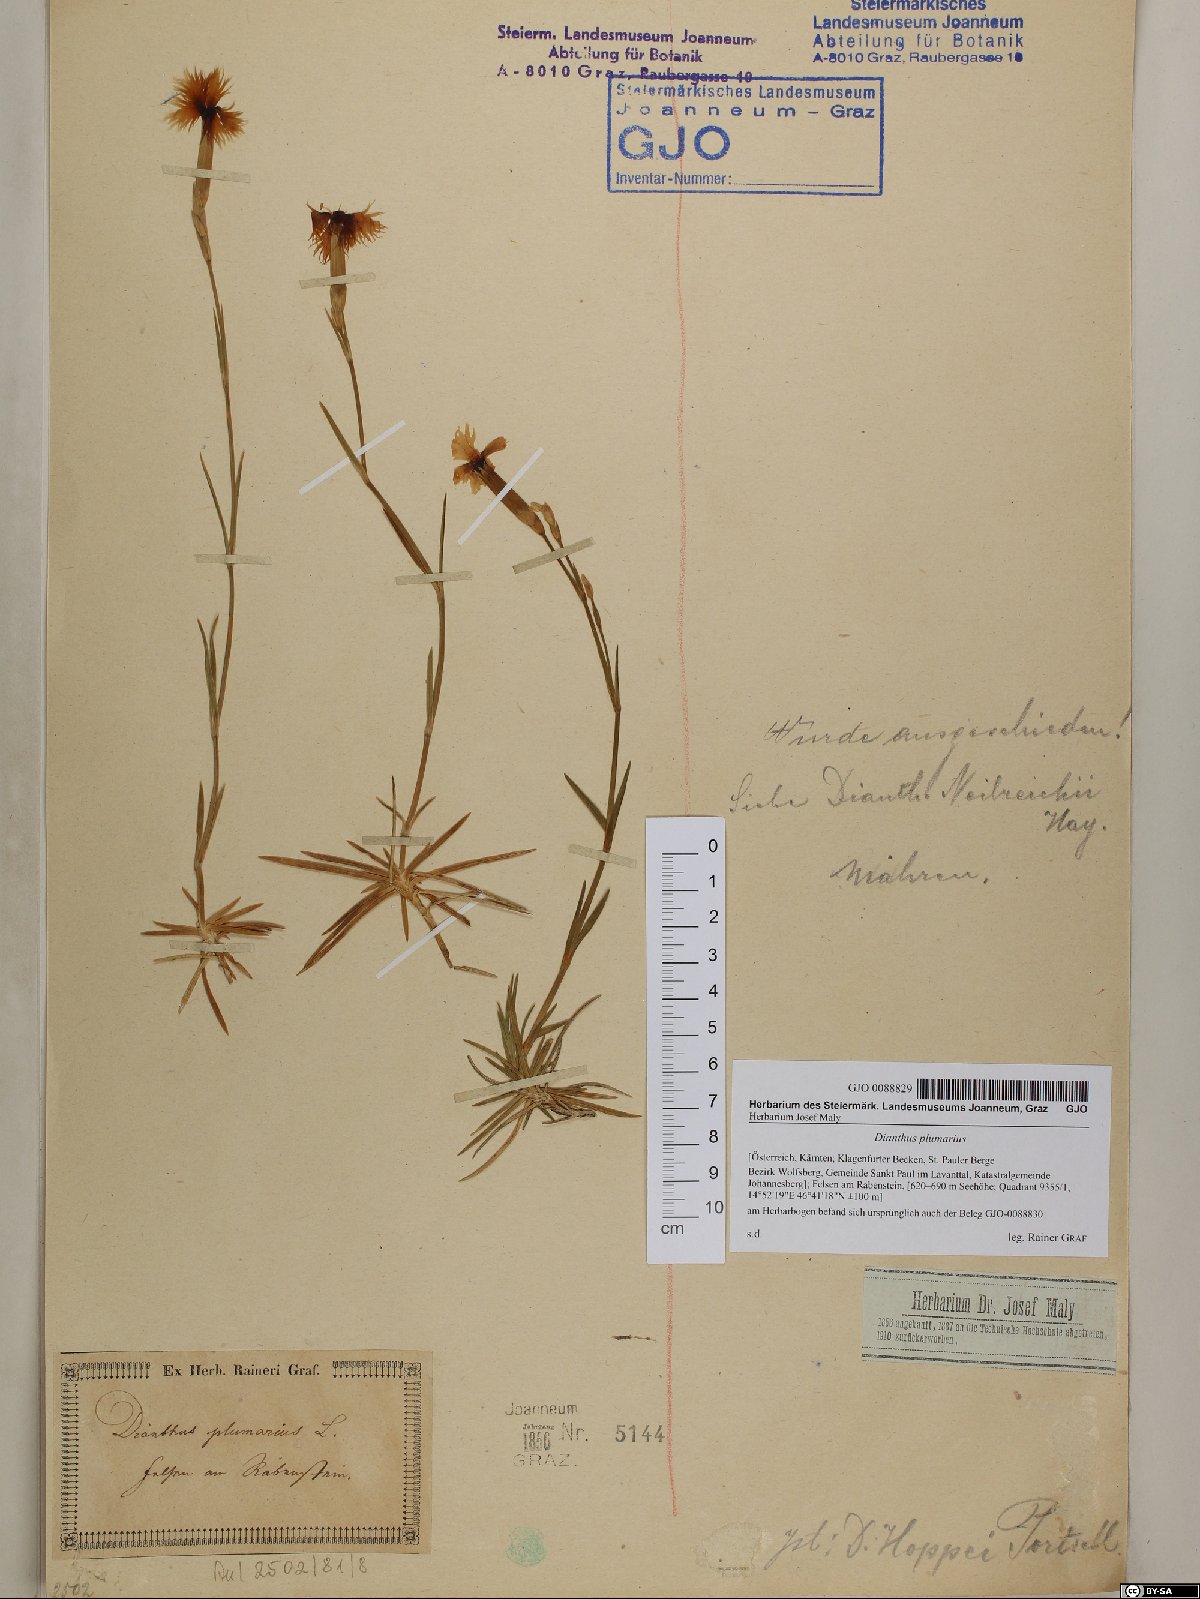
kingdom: Plantae
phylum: Tracheophyta
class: Magnoliopsida
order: Caryophyllales
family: Caryophyllaceae
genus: Dianthus
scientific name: Dianthus plumarius
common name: Pink
